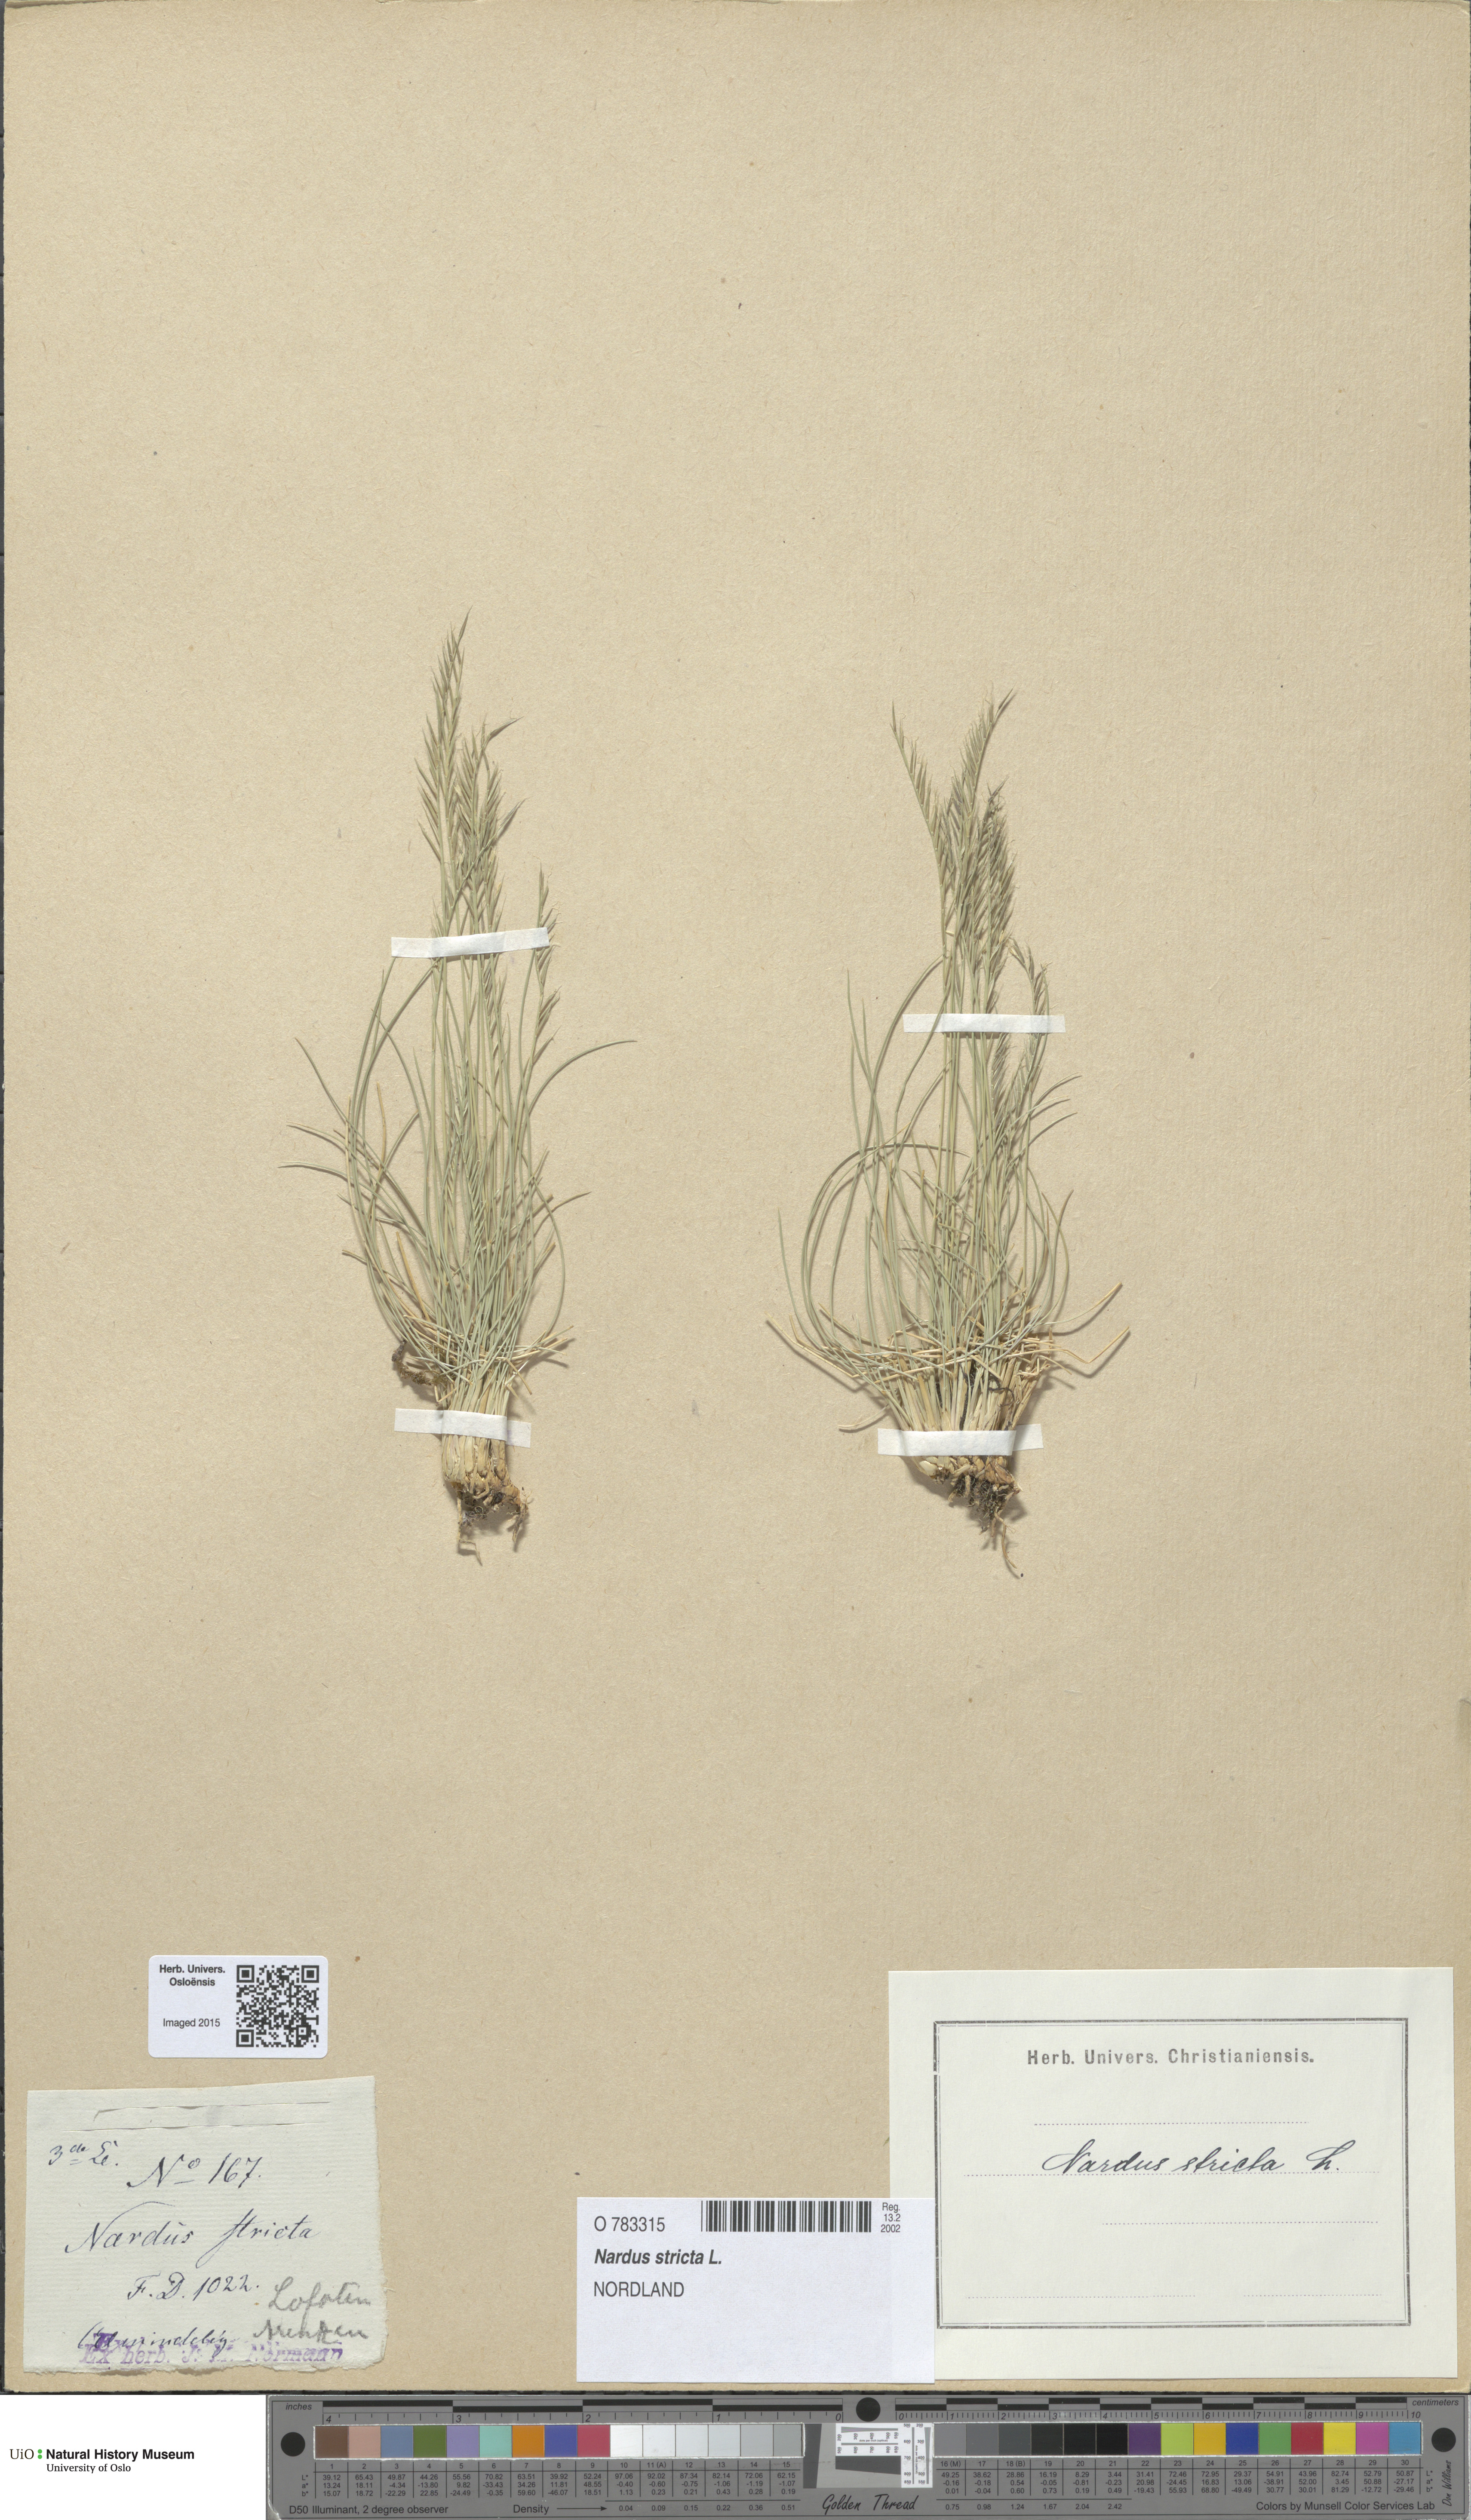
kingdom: Plantae
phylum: Tracheophyta
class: Liliopsida
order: Poales
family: Poaceae
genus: Nardus
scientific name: Nardus stricta
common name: Mat-grass
